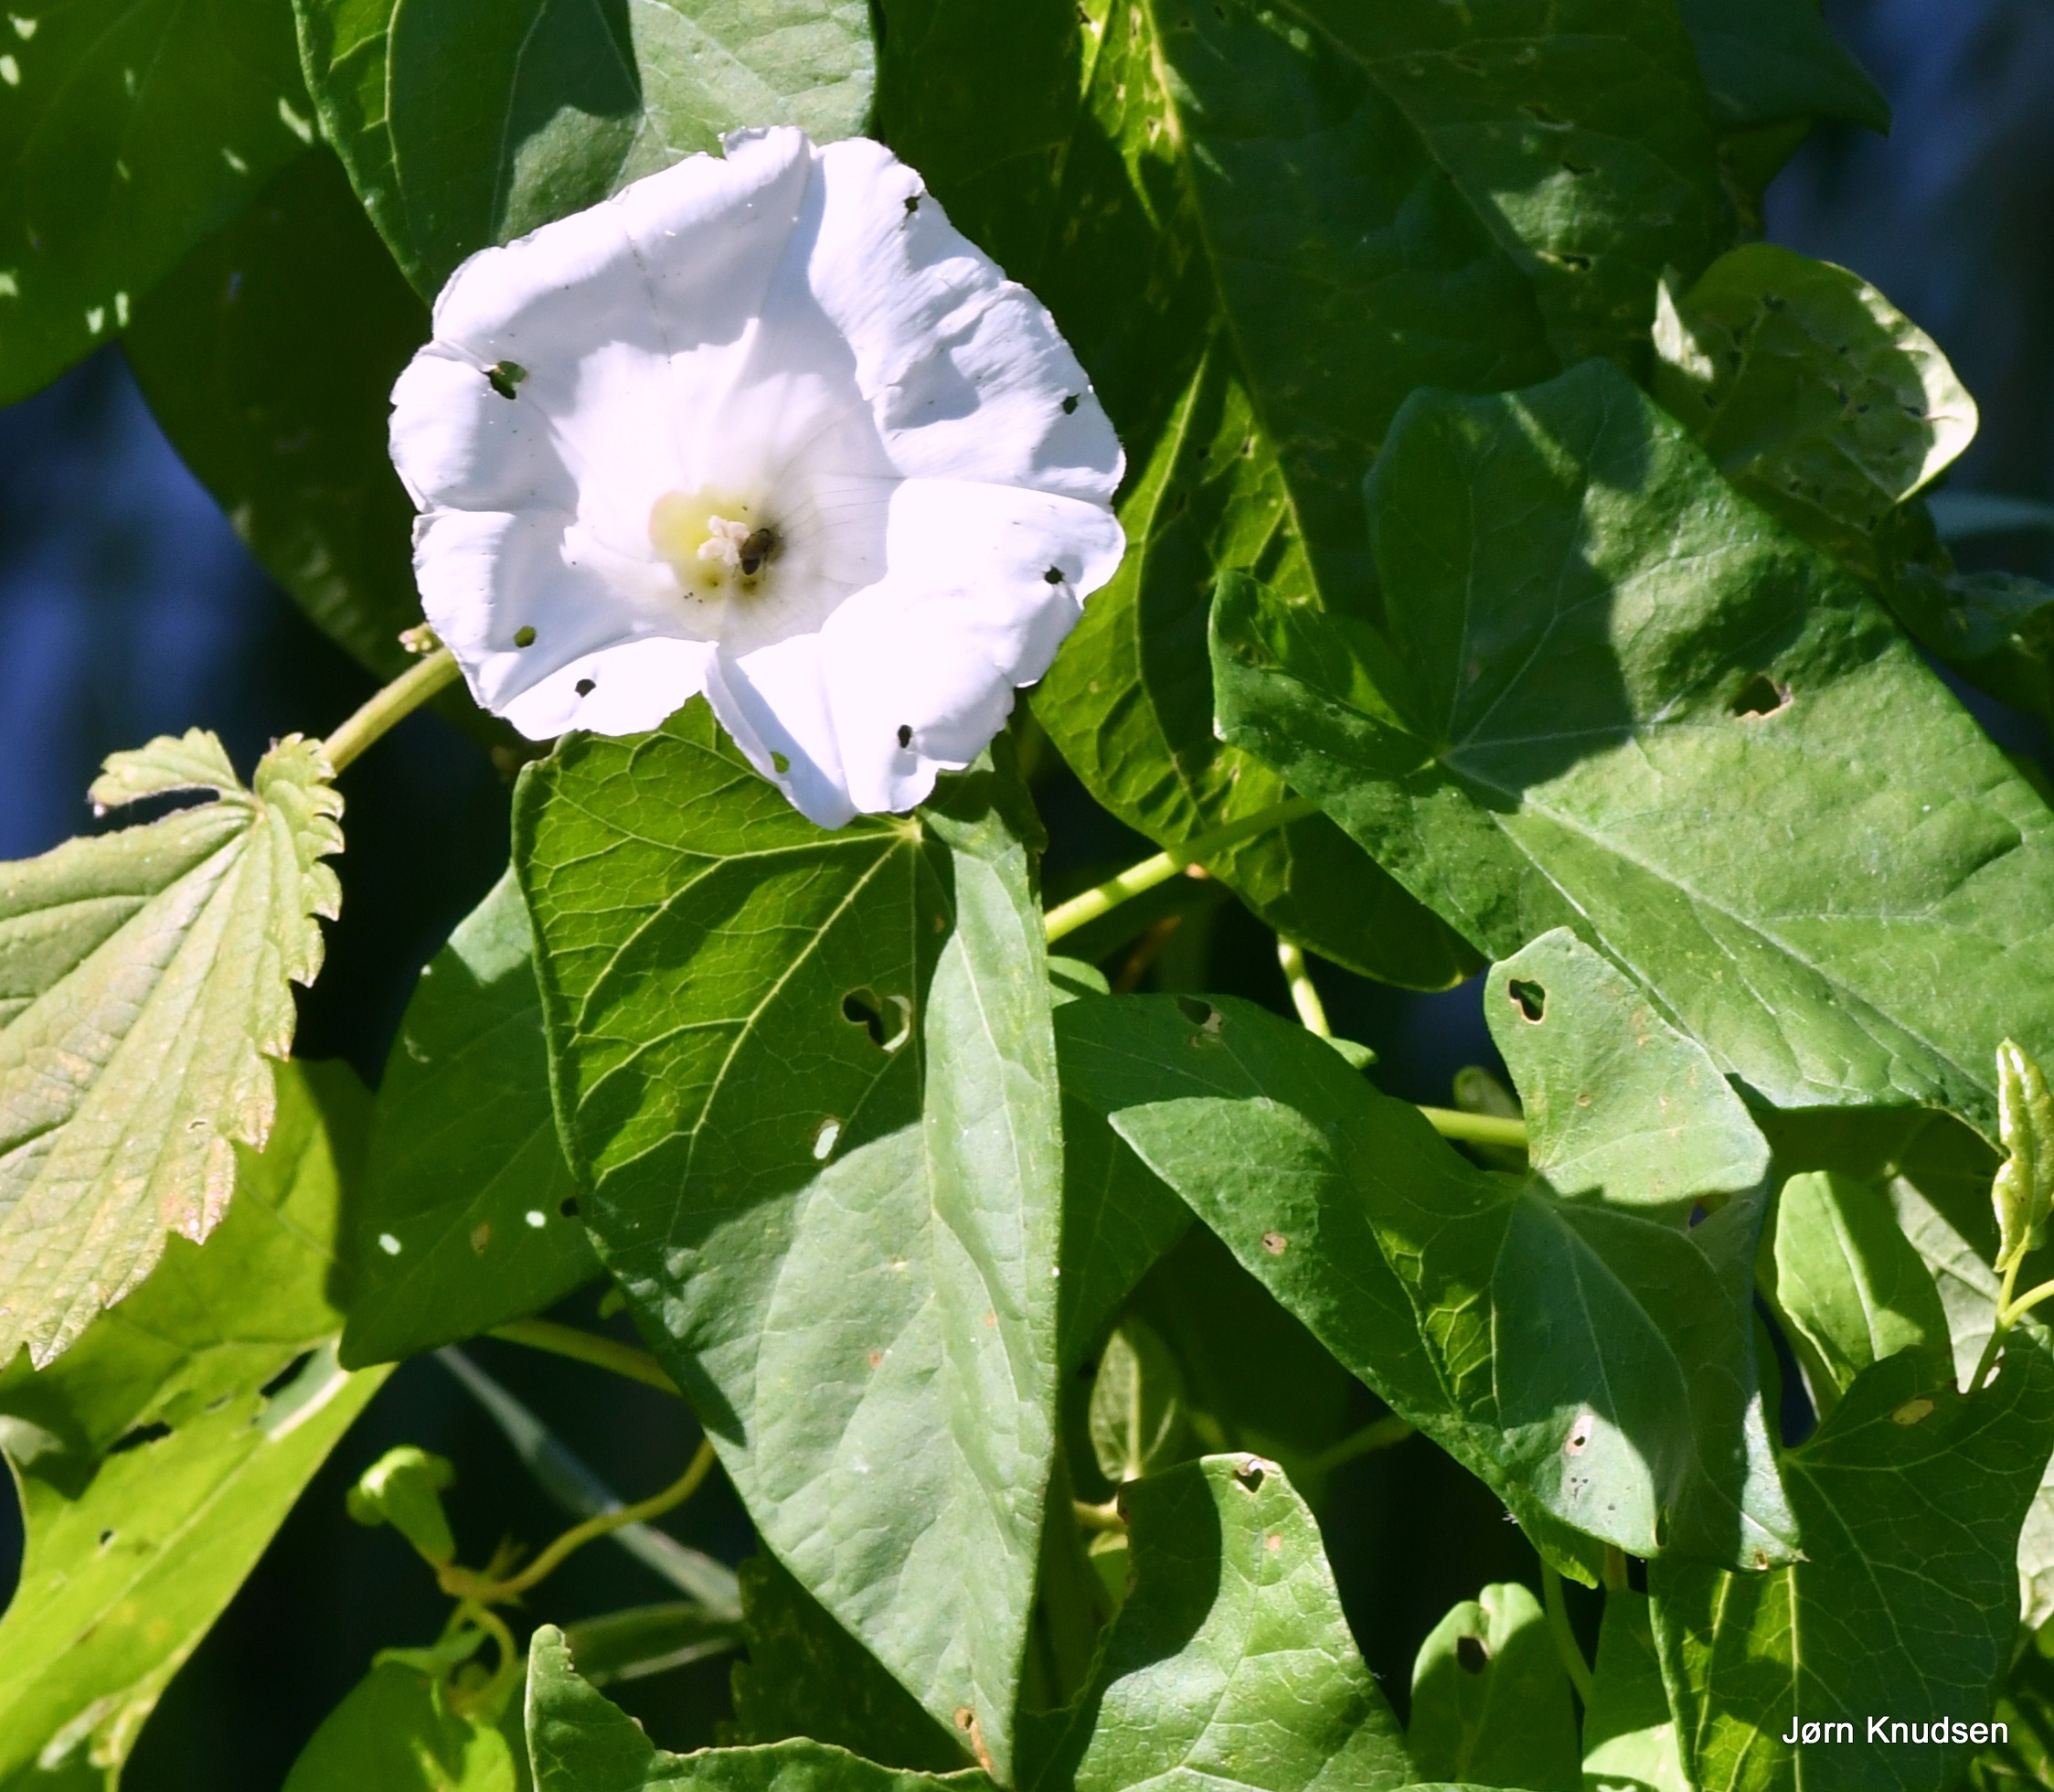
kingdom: Plantae
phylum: Tracheophyta
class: Magnoliopsida
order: Solanales
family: Convolvulaceae
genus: Calystegia
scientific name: Calystegia sepium
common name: Gærde-snerle
